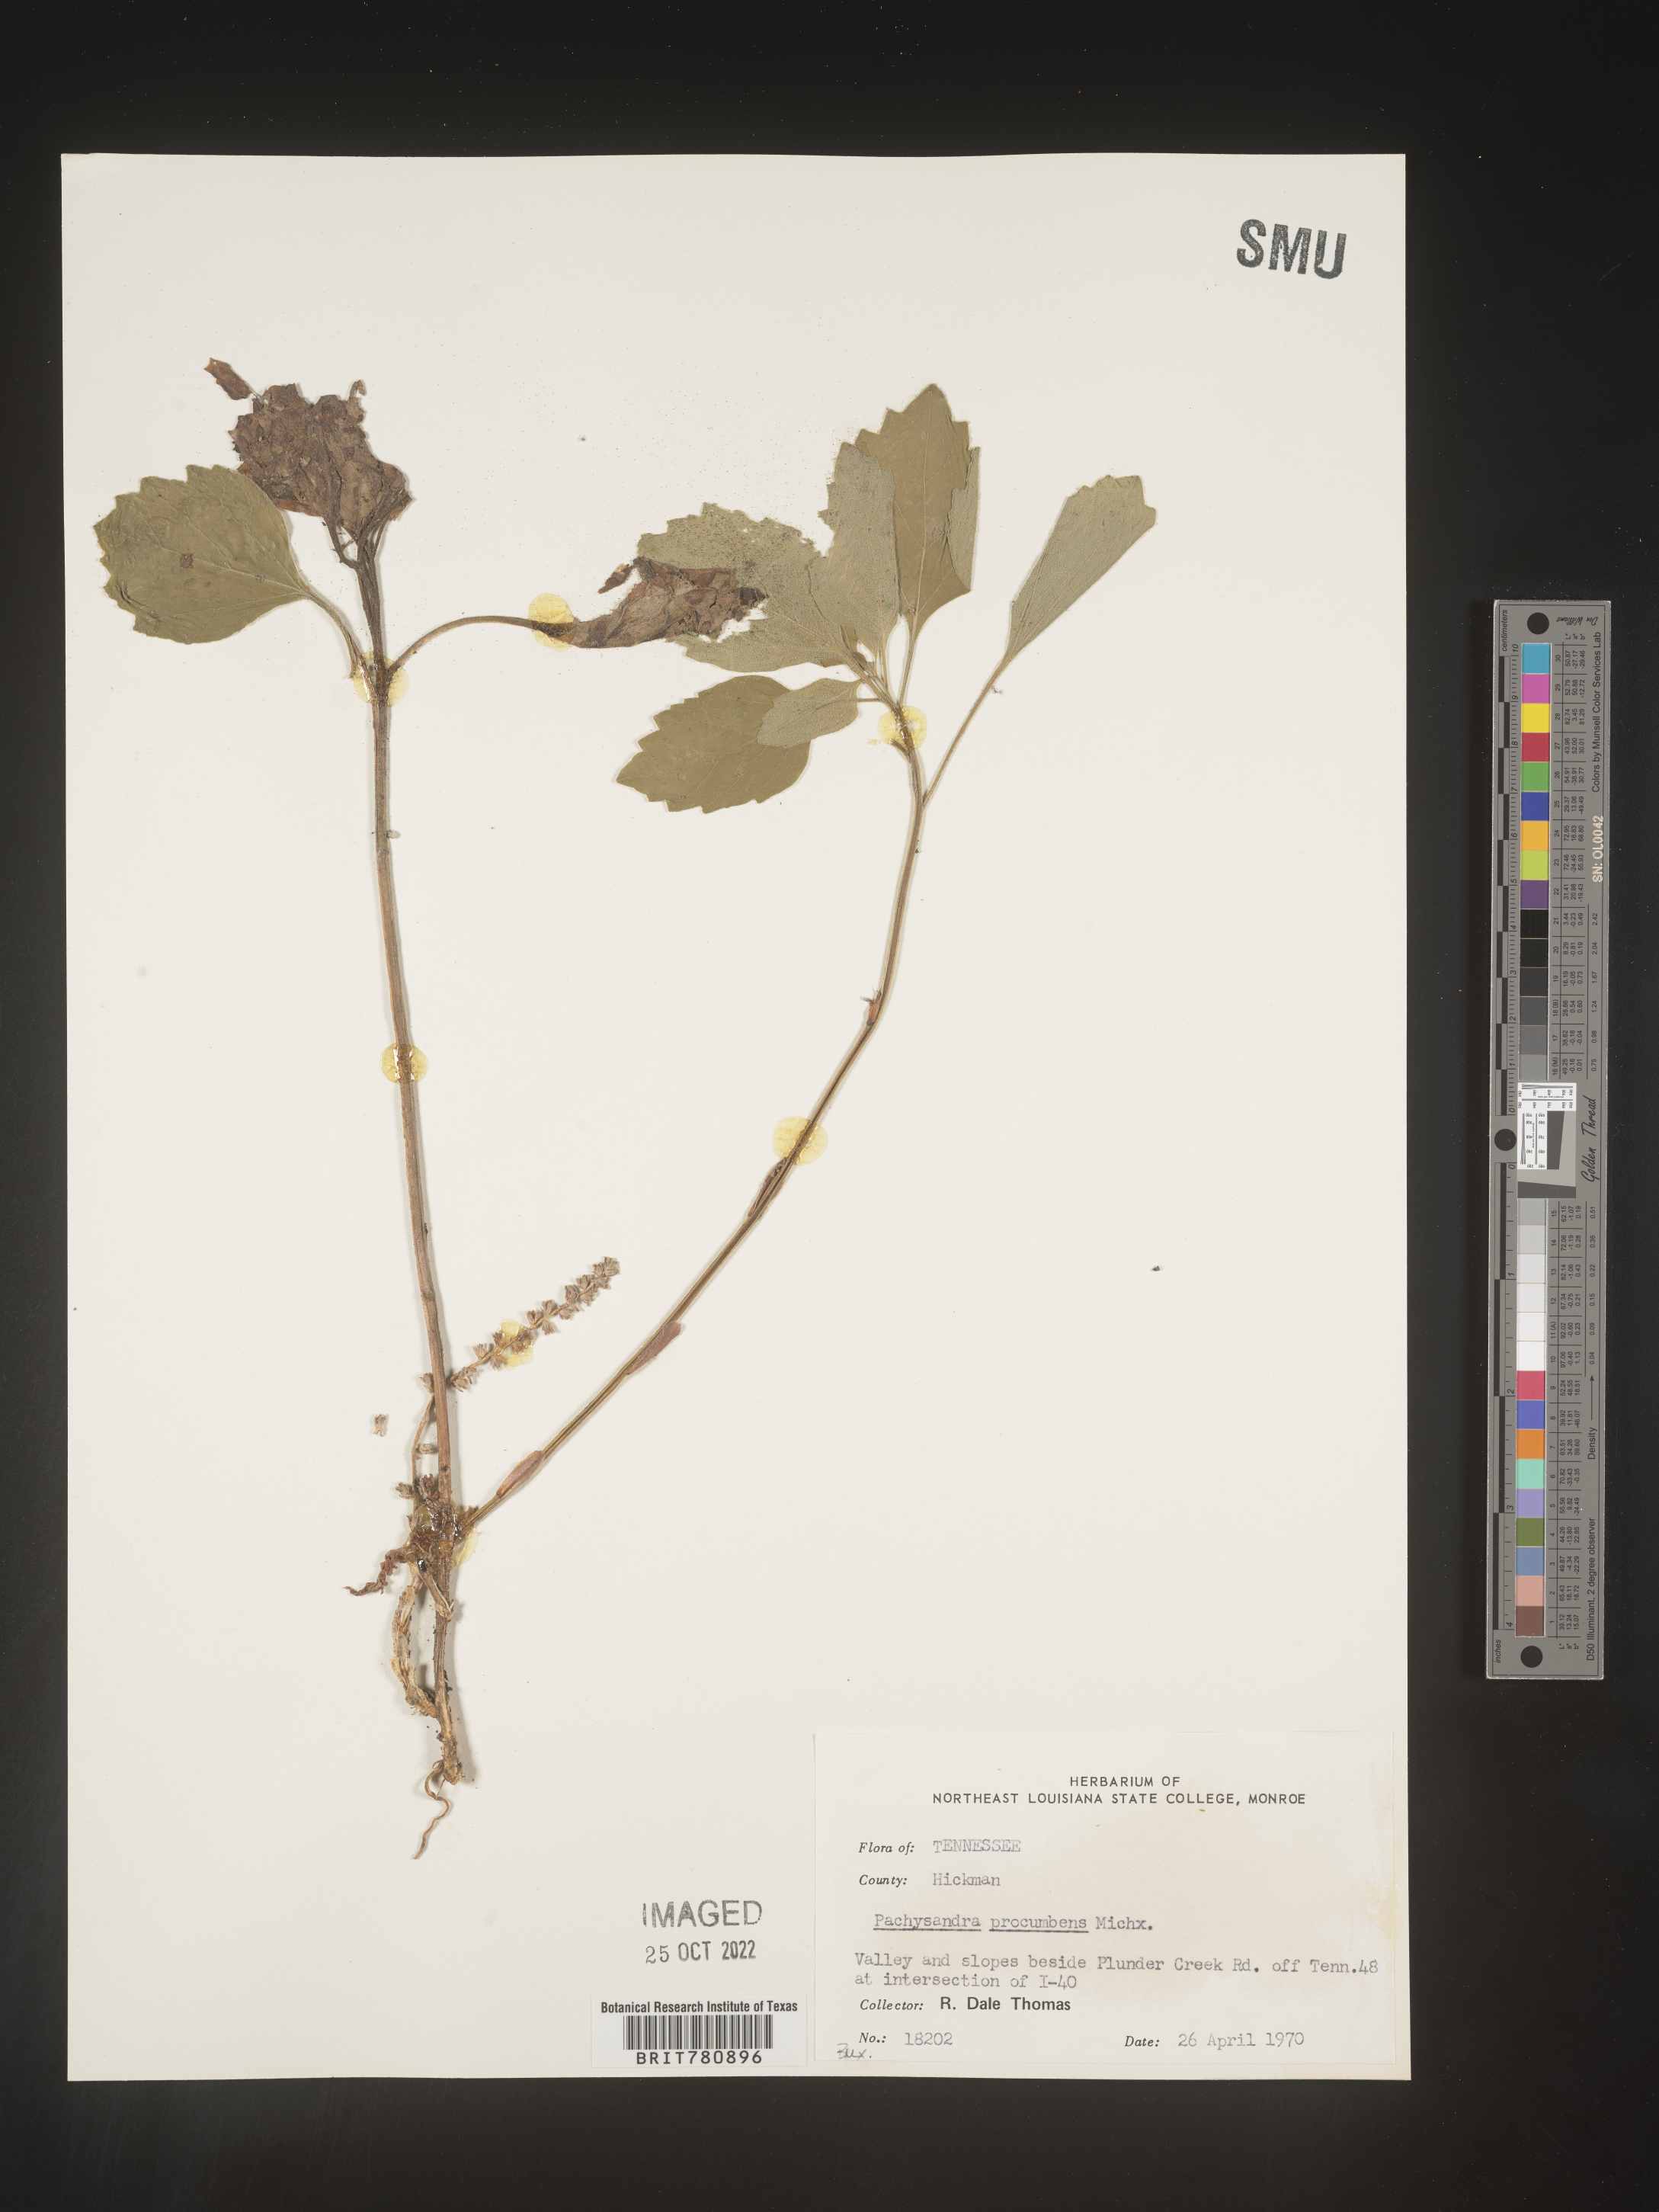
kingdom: Plantae
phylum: Tracheophyta
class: Magnoliopsida
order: Buxales
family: Buxaceae
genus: Pachysandra
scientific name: Pachysandra
